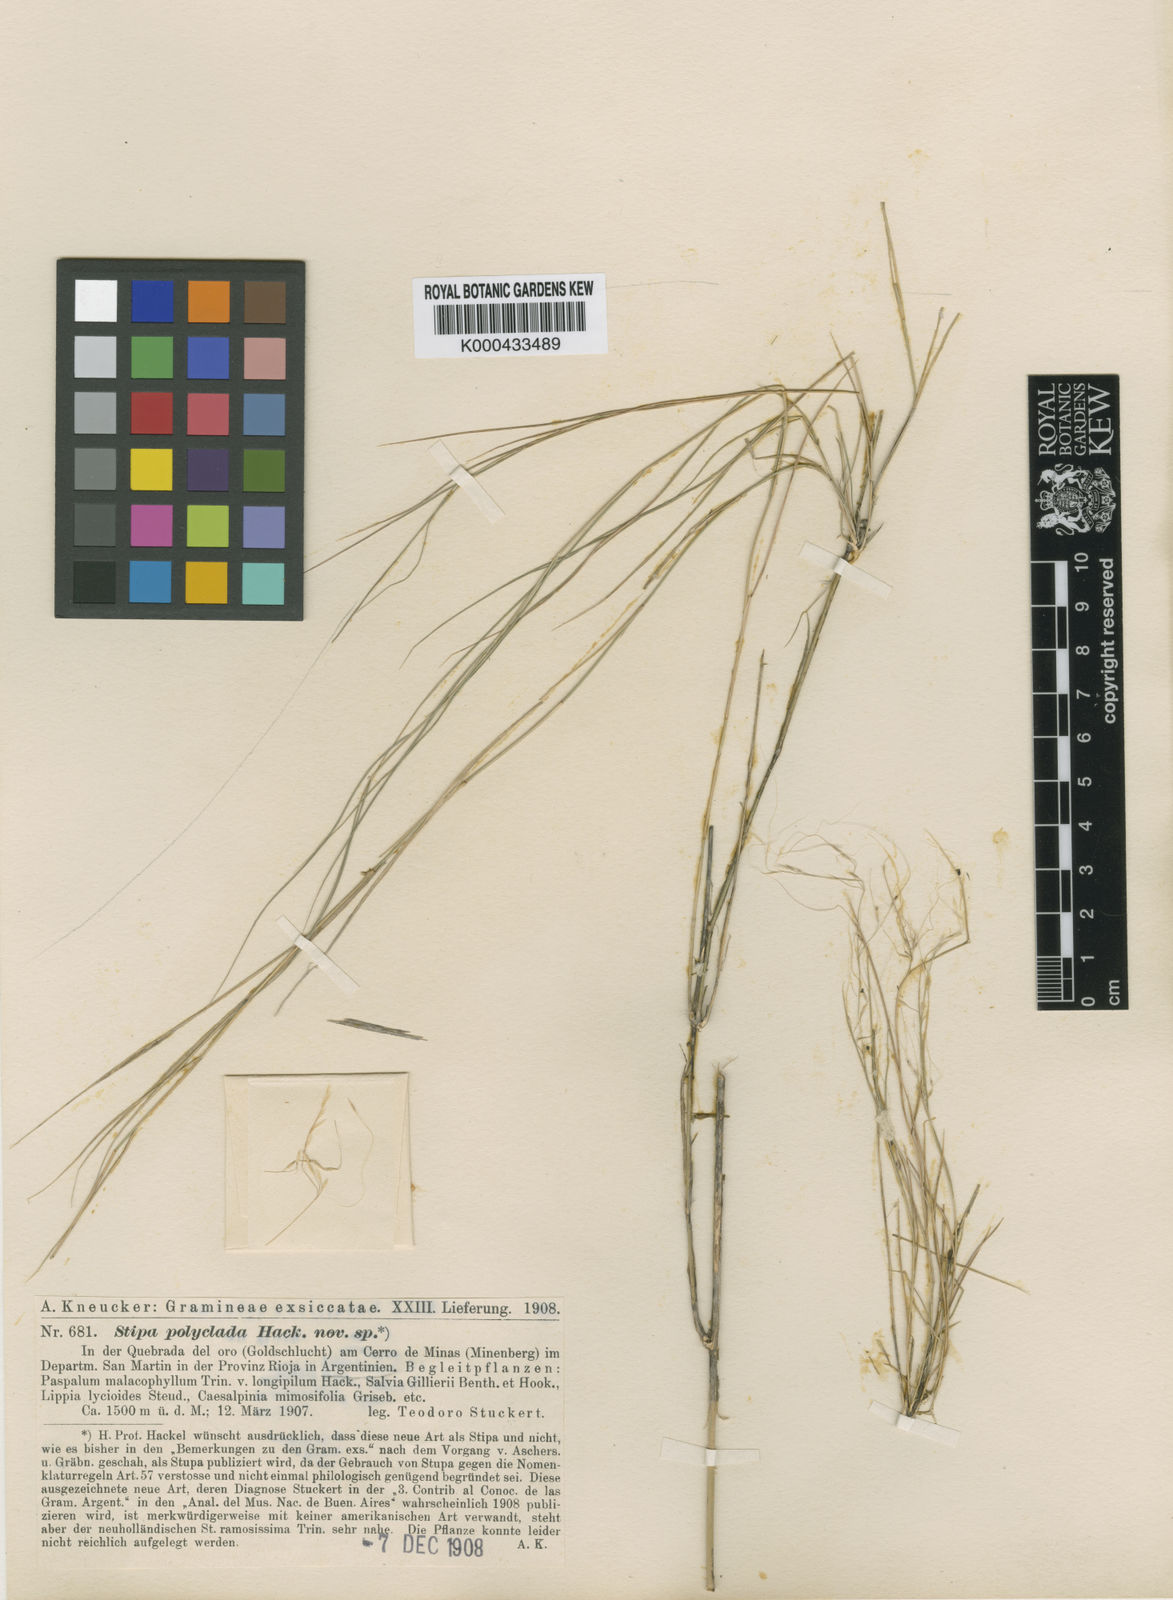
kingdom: Plantae
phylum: Tracheophyta
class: Liliopsida
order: Poales
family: Poaceae
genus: Stipa
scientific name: Stipa polyclada
